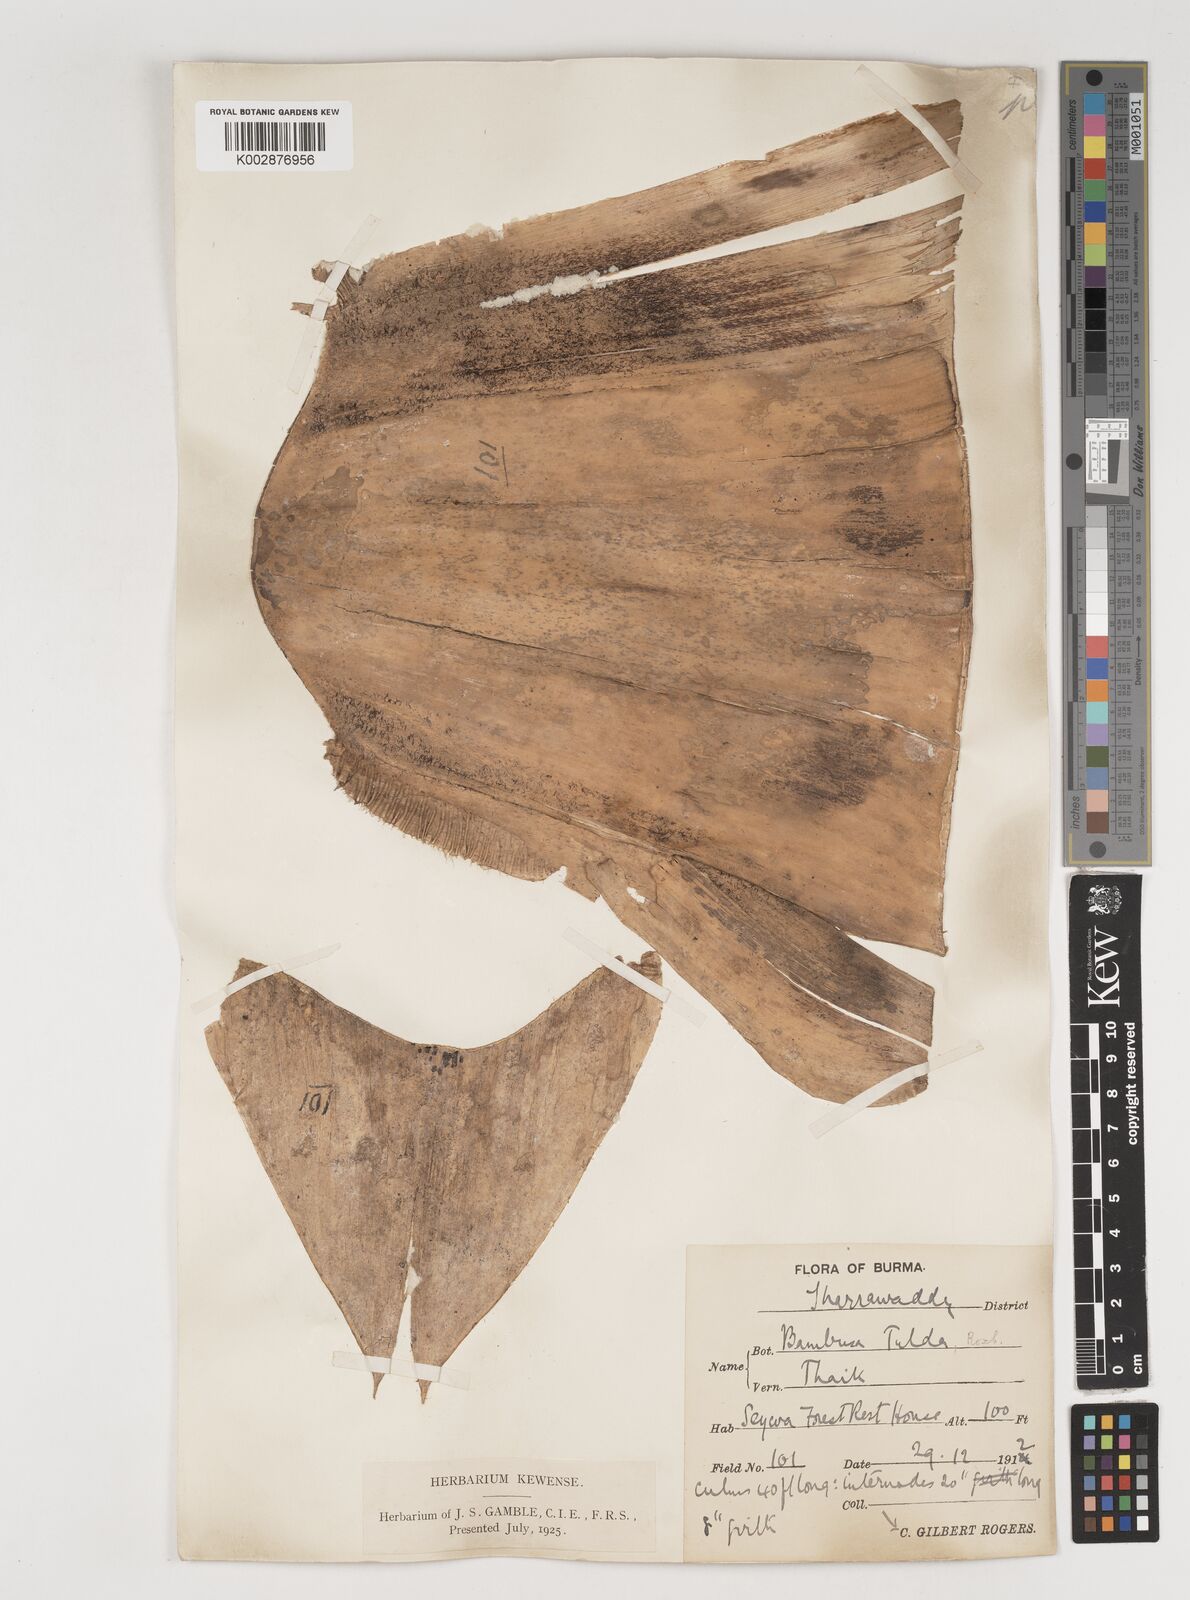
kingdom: Plantae
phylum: Tracheophyta
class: Liliopsida
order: Poales
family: Poaceae
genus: Bambusa
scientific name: Bambusa tulda
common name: Bengal bamboo
